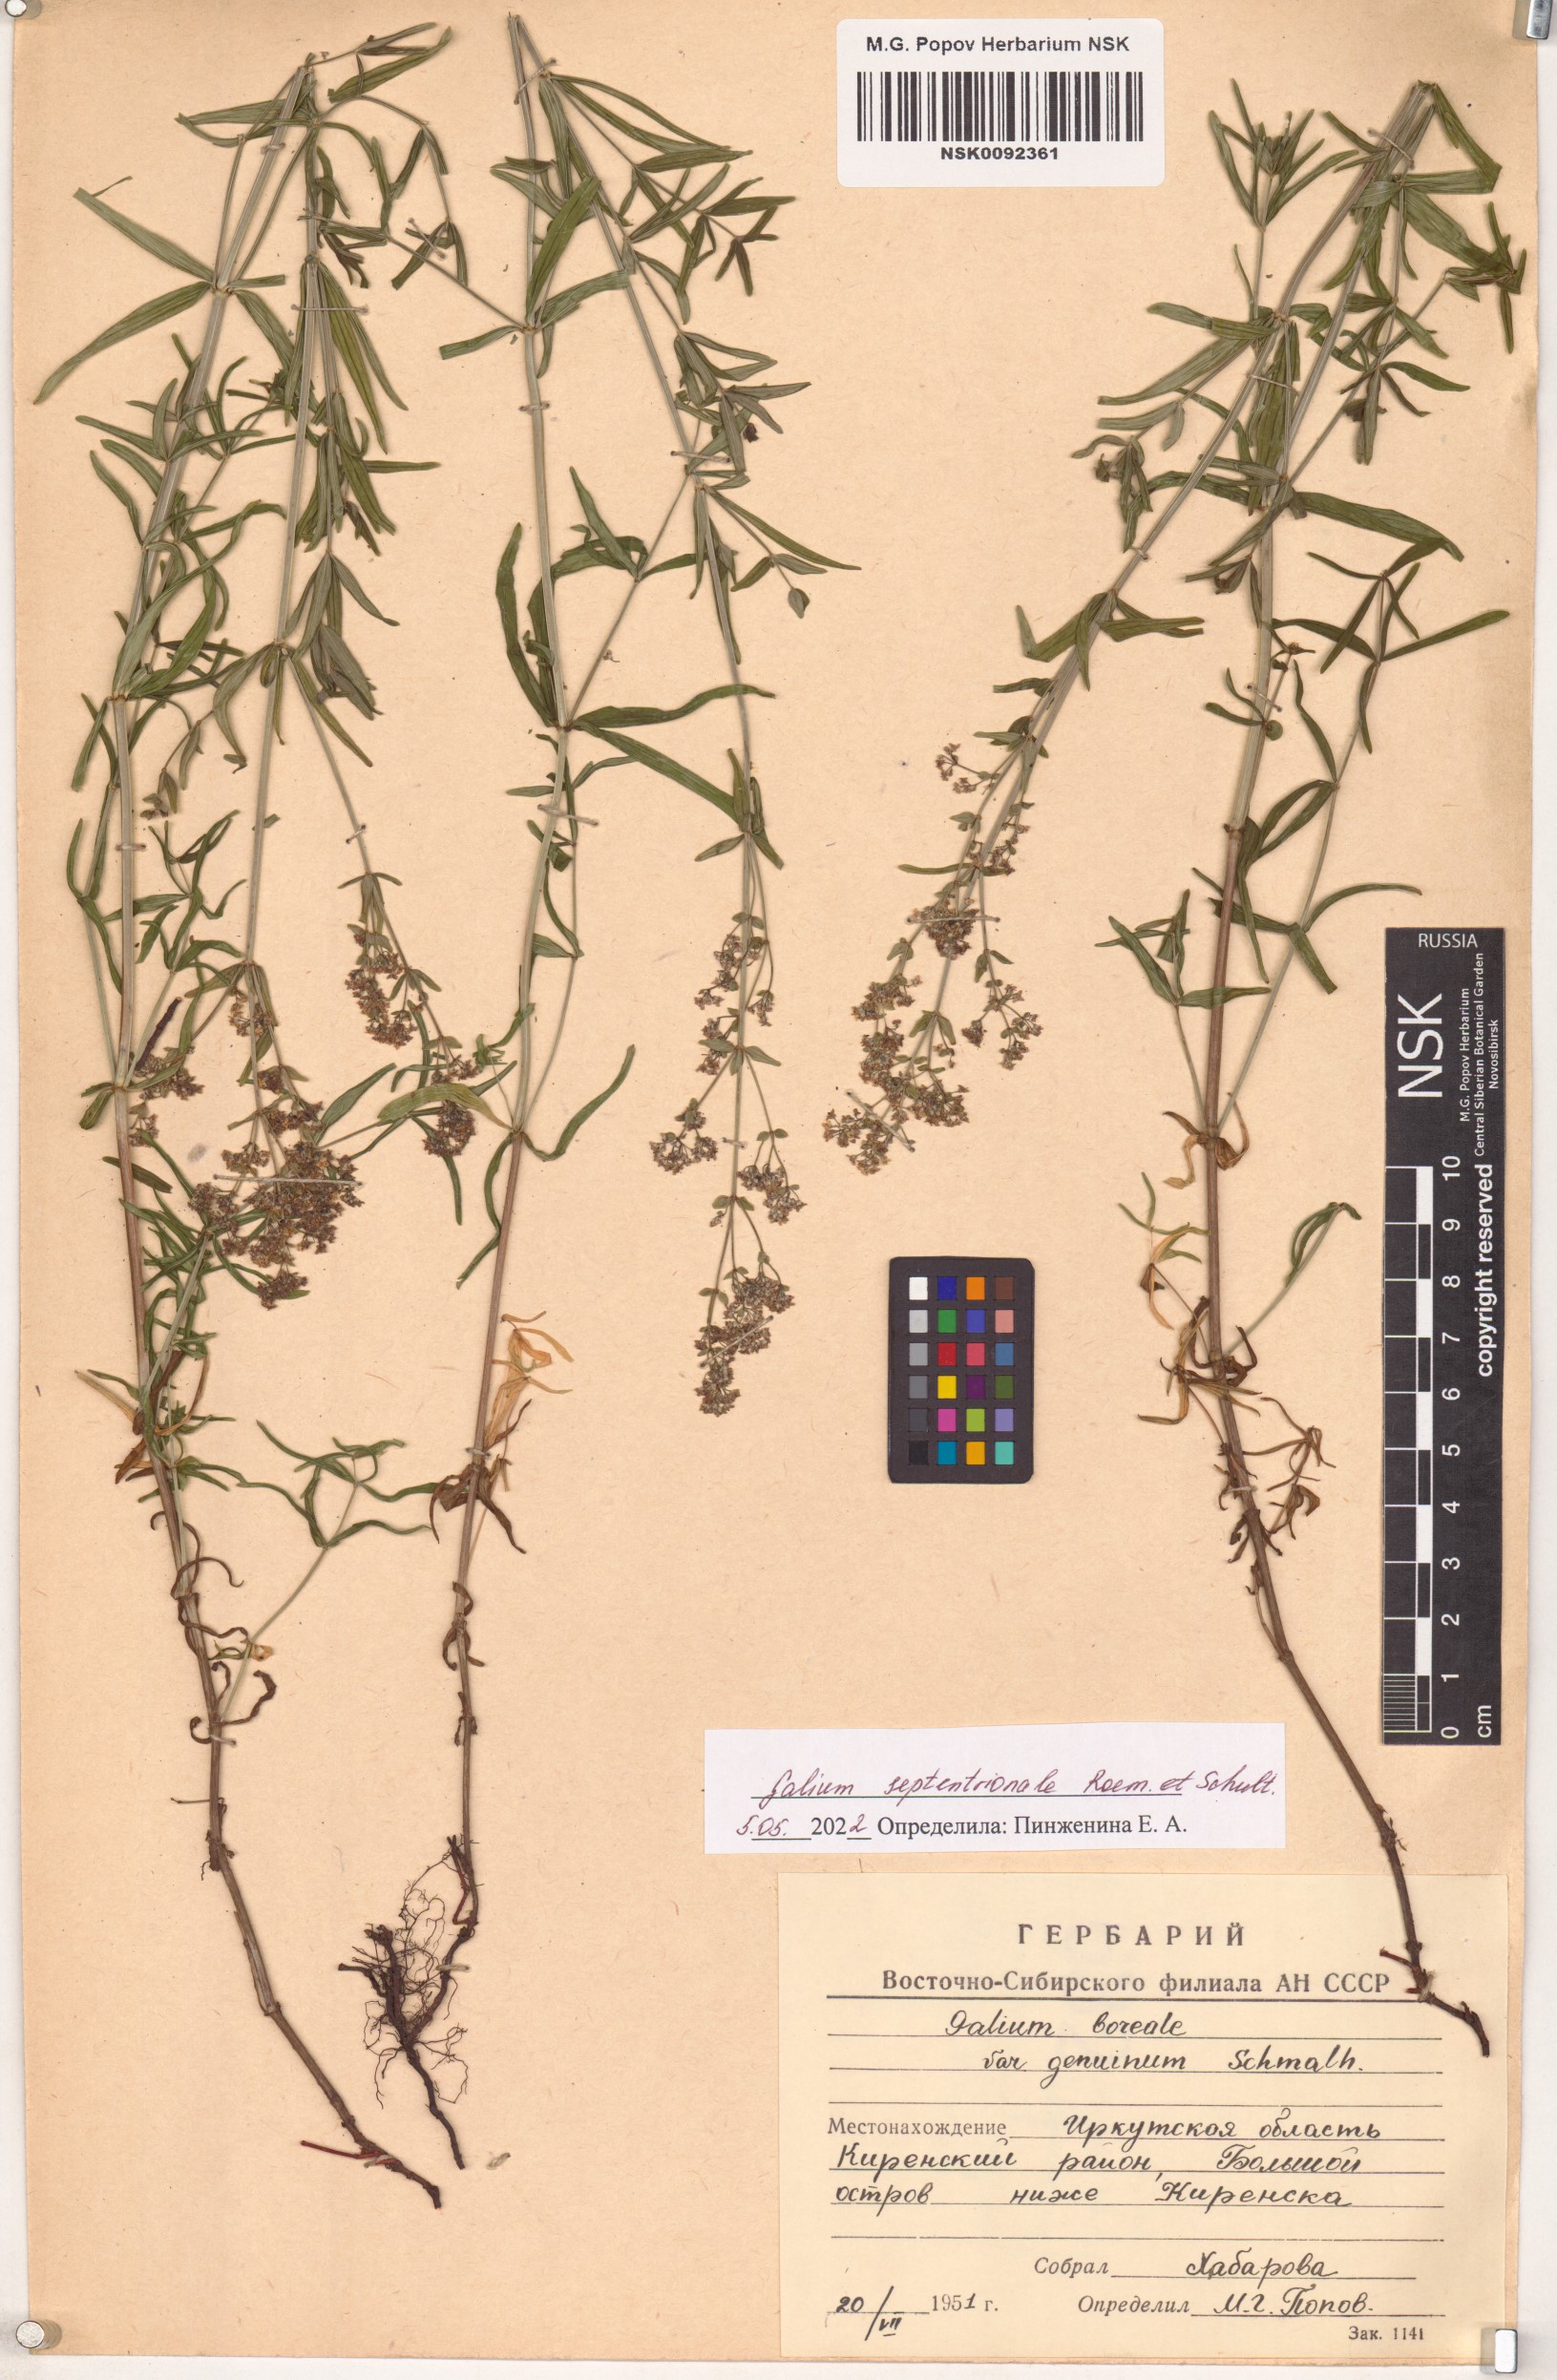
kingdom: Plantae
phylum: Tracheophyta
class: Magnoliopsida
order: Gentianales
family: Rubiaceae
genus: Galium
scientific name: Galium boreale
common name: Northern bedstraw
